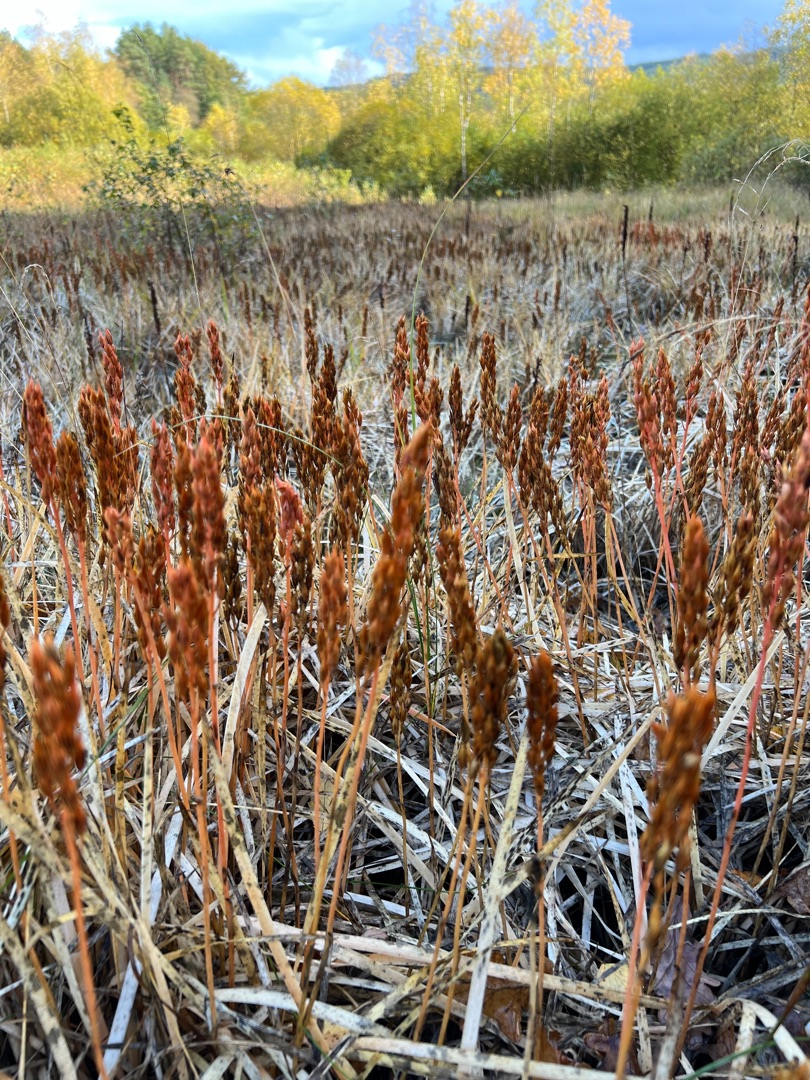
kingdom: Plantae
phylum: Tracheophyta
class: Liliopsida
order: Dioscoreales
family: Nartheciaceae
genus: Narthecium
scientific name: Narthecium ossifragum
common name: Benbræk
